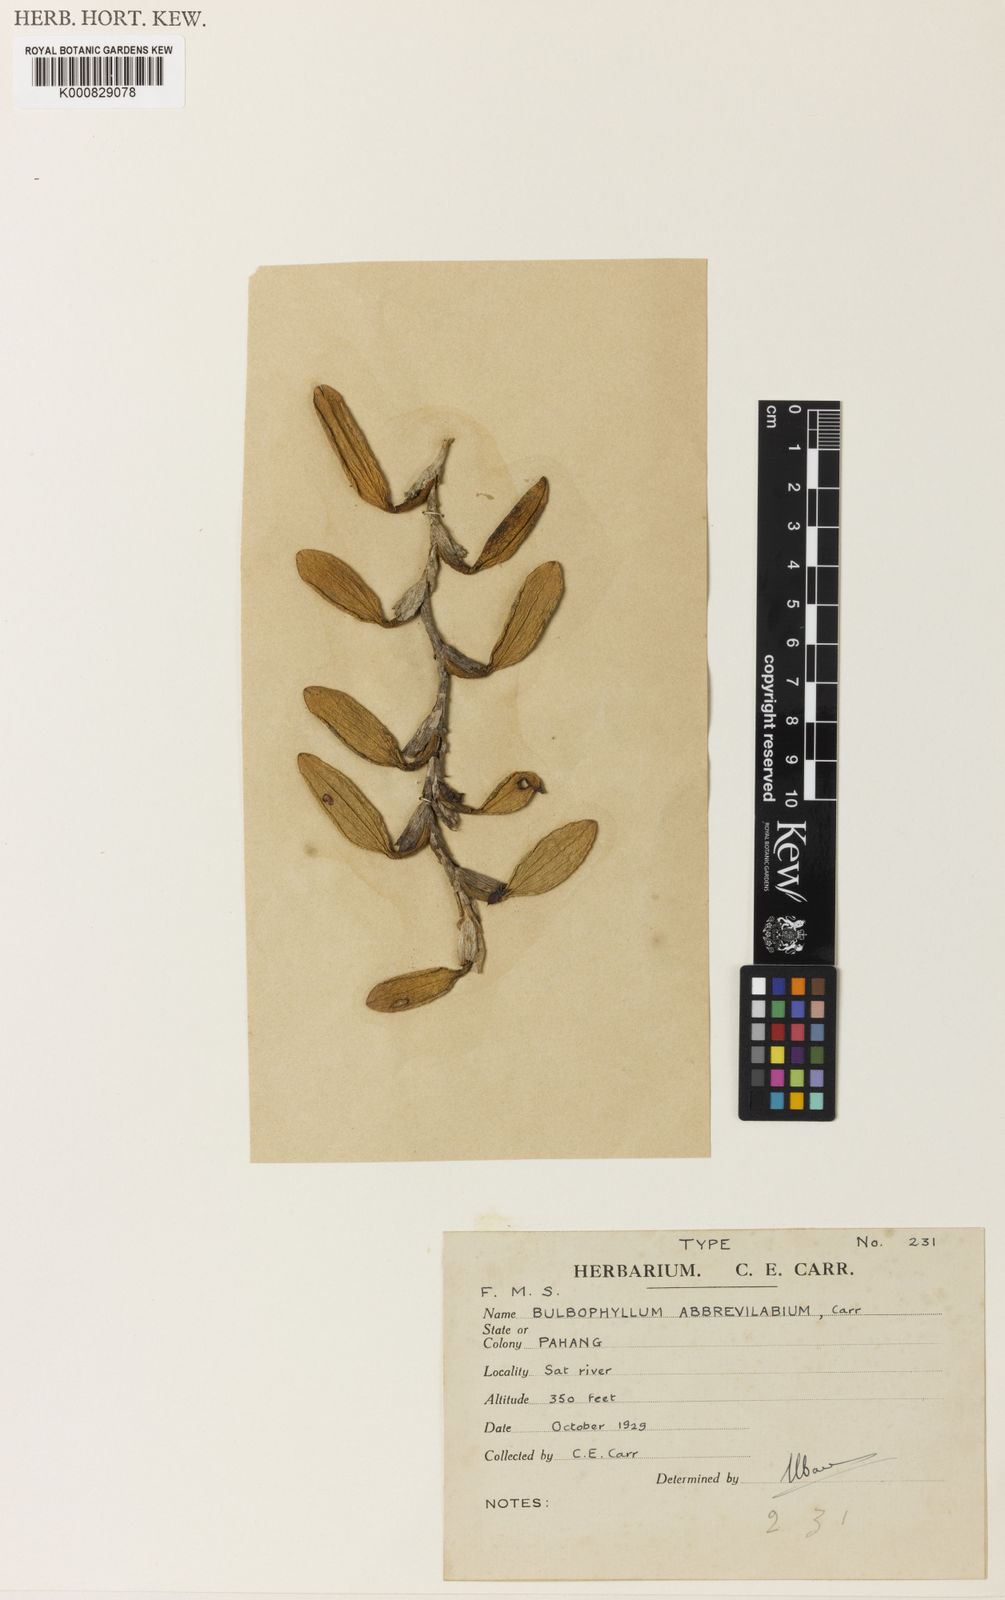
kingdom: Plantae
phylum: Tracheophyta
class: Liliopsida
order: Asparagales
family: Orchidaceae
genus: Bulbophyllum
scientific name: Bulbophyllum octorhopalon
